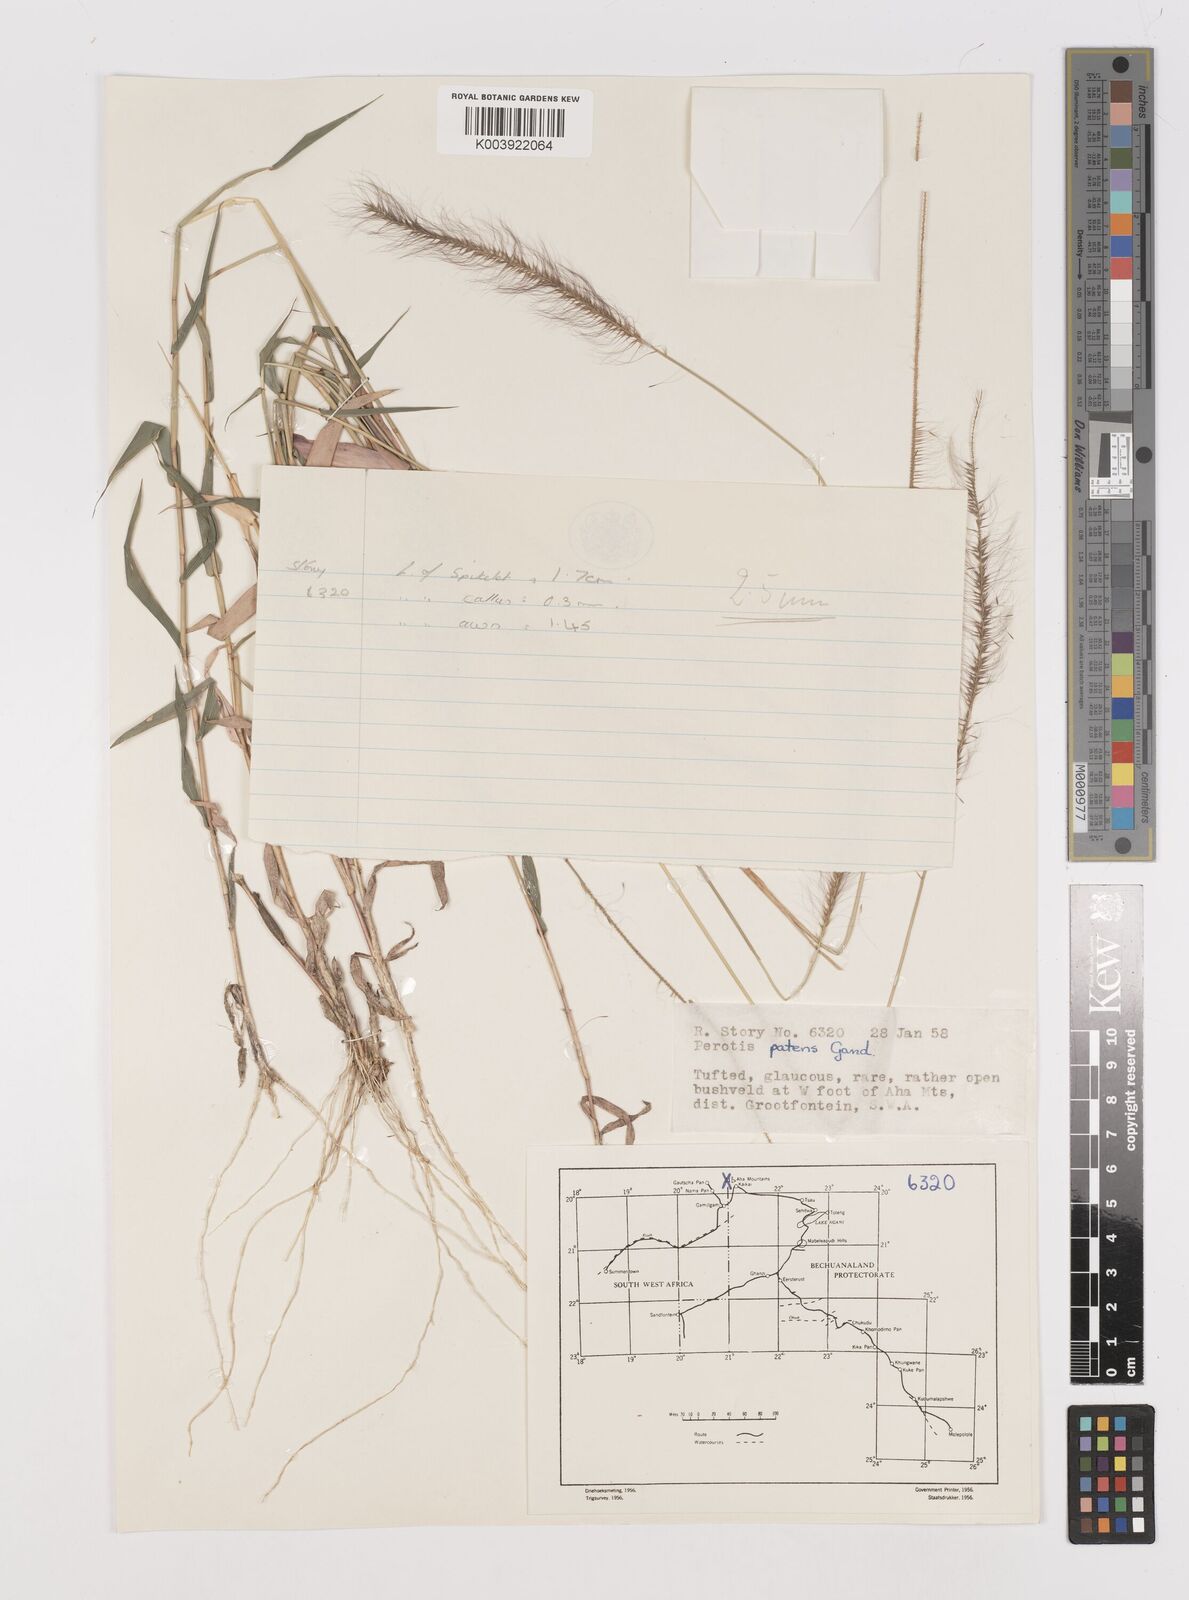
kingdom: Plantae
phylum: Tracheophyta
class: Liliopsida
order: Poales
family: Poaceae
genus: Perotis
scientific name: Perotis patens
